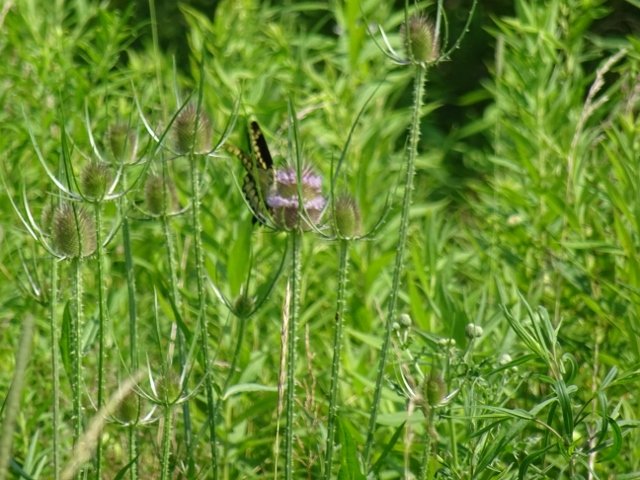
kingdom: Animalia
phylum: Arthropoda
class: Insecta
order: Lepidoptera
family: Papilionidae
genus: Papilio
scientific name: Papilio cresphontes
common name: Eastern Giant Swallowtail
